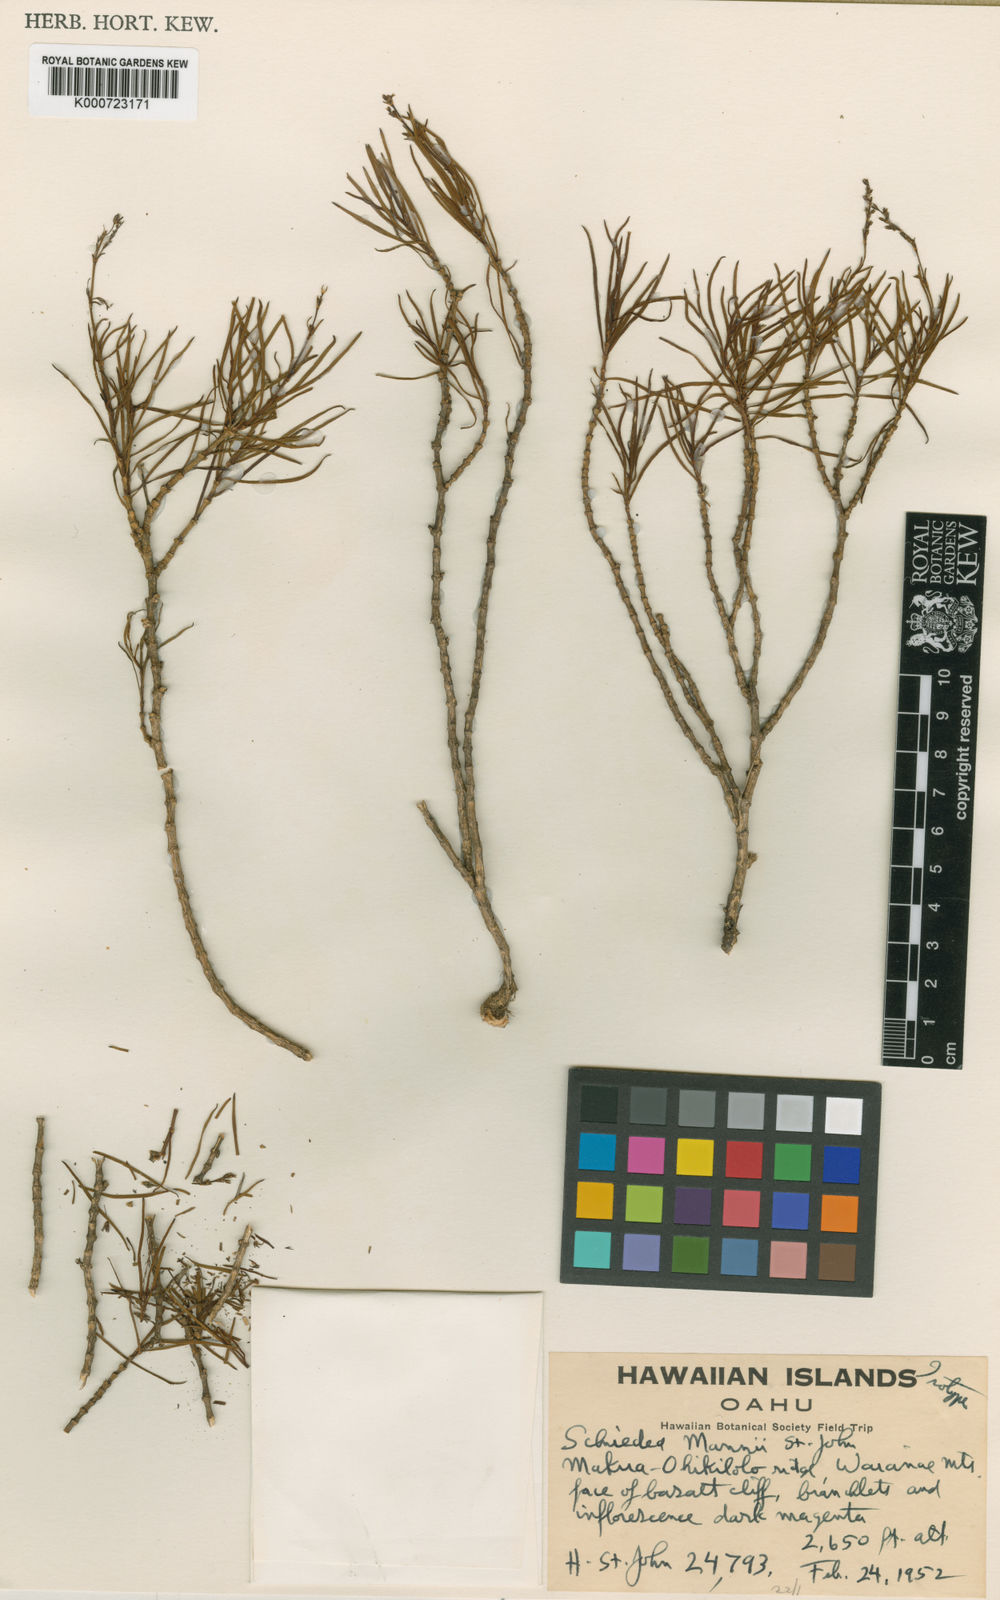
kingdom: Plantae
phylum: Tracheophyta
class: Magnoliopsida
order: Caryophyllales
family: Caryophyllaceae
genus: Schiedea
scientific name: Schiedea mannii
